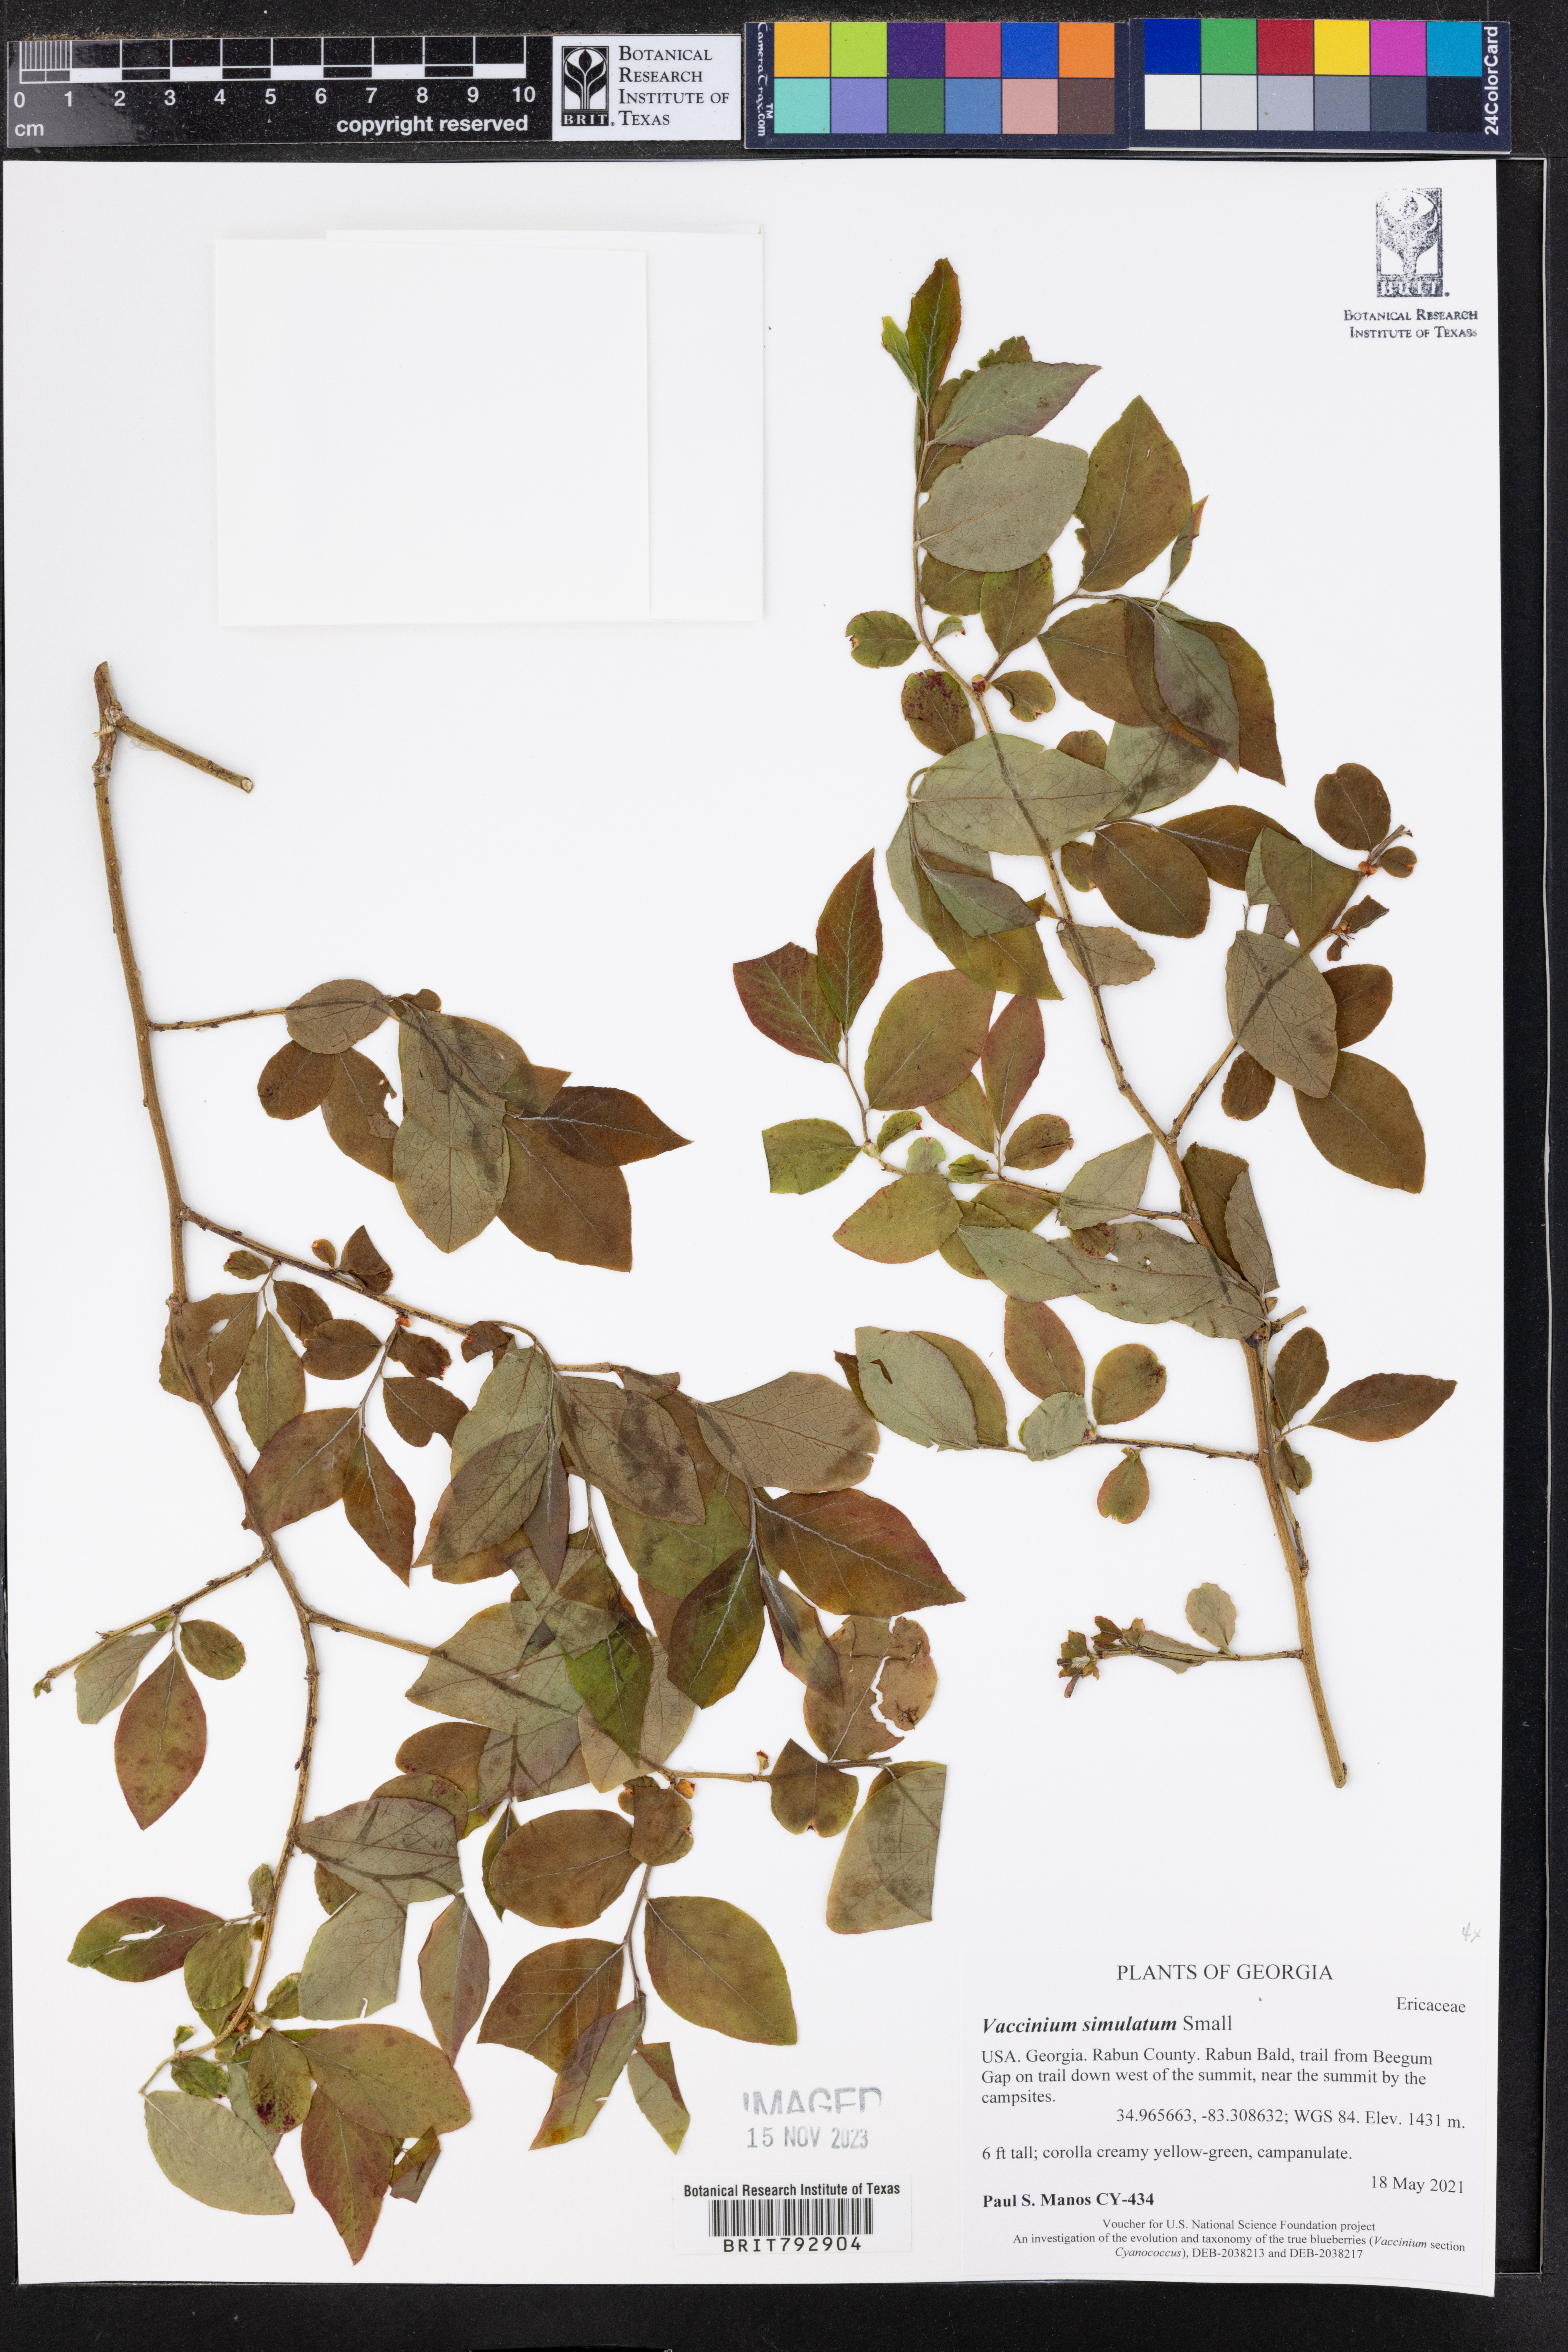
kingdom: Plantae
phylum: Tracheophyta
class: Magnoliopsida
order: Ericales
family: Ericaceae
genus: Vaccinium
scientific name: Vaccinium corymbosum
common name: Blueberry
